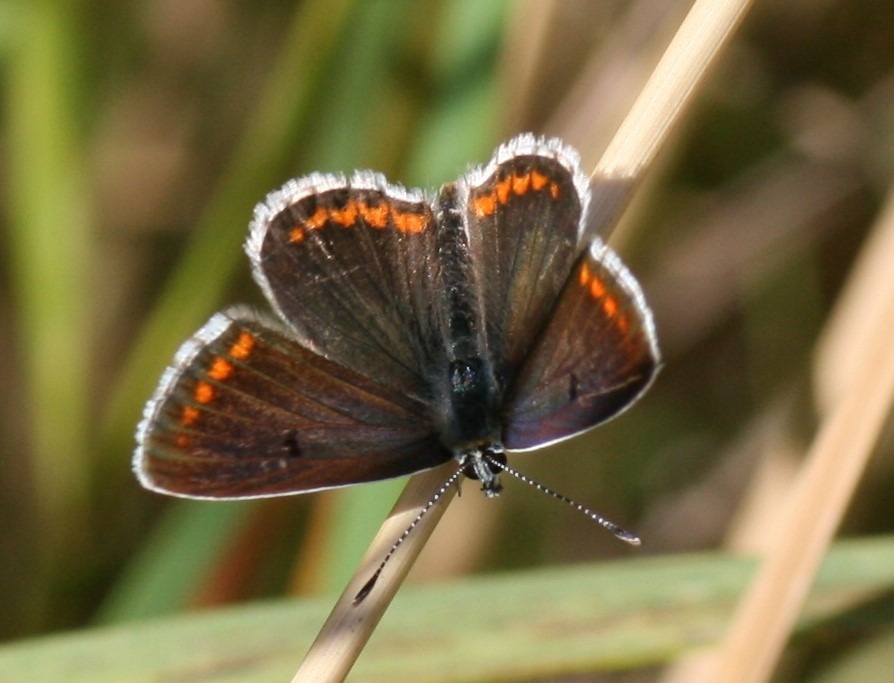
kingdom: Animalia
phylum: Arthropoda
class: Insecta
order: Lepidoptera
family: Lycaenidae
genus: Aricia
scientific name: Aricia agestis
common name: Rødplettet blåfugl
